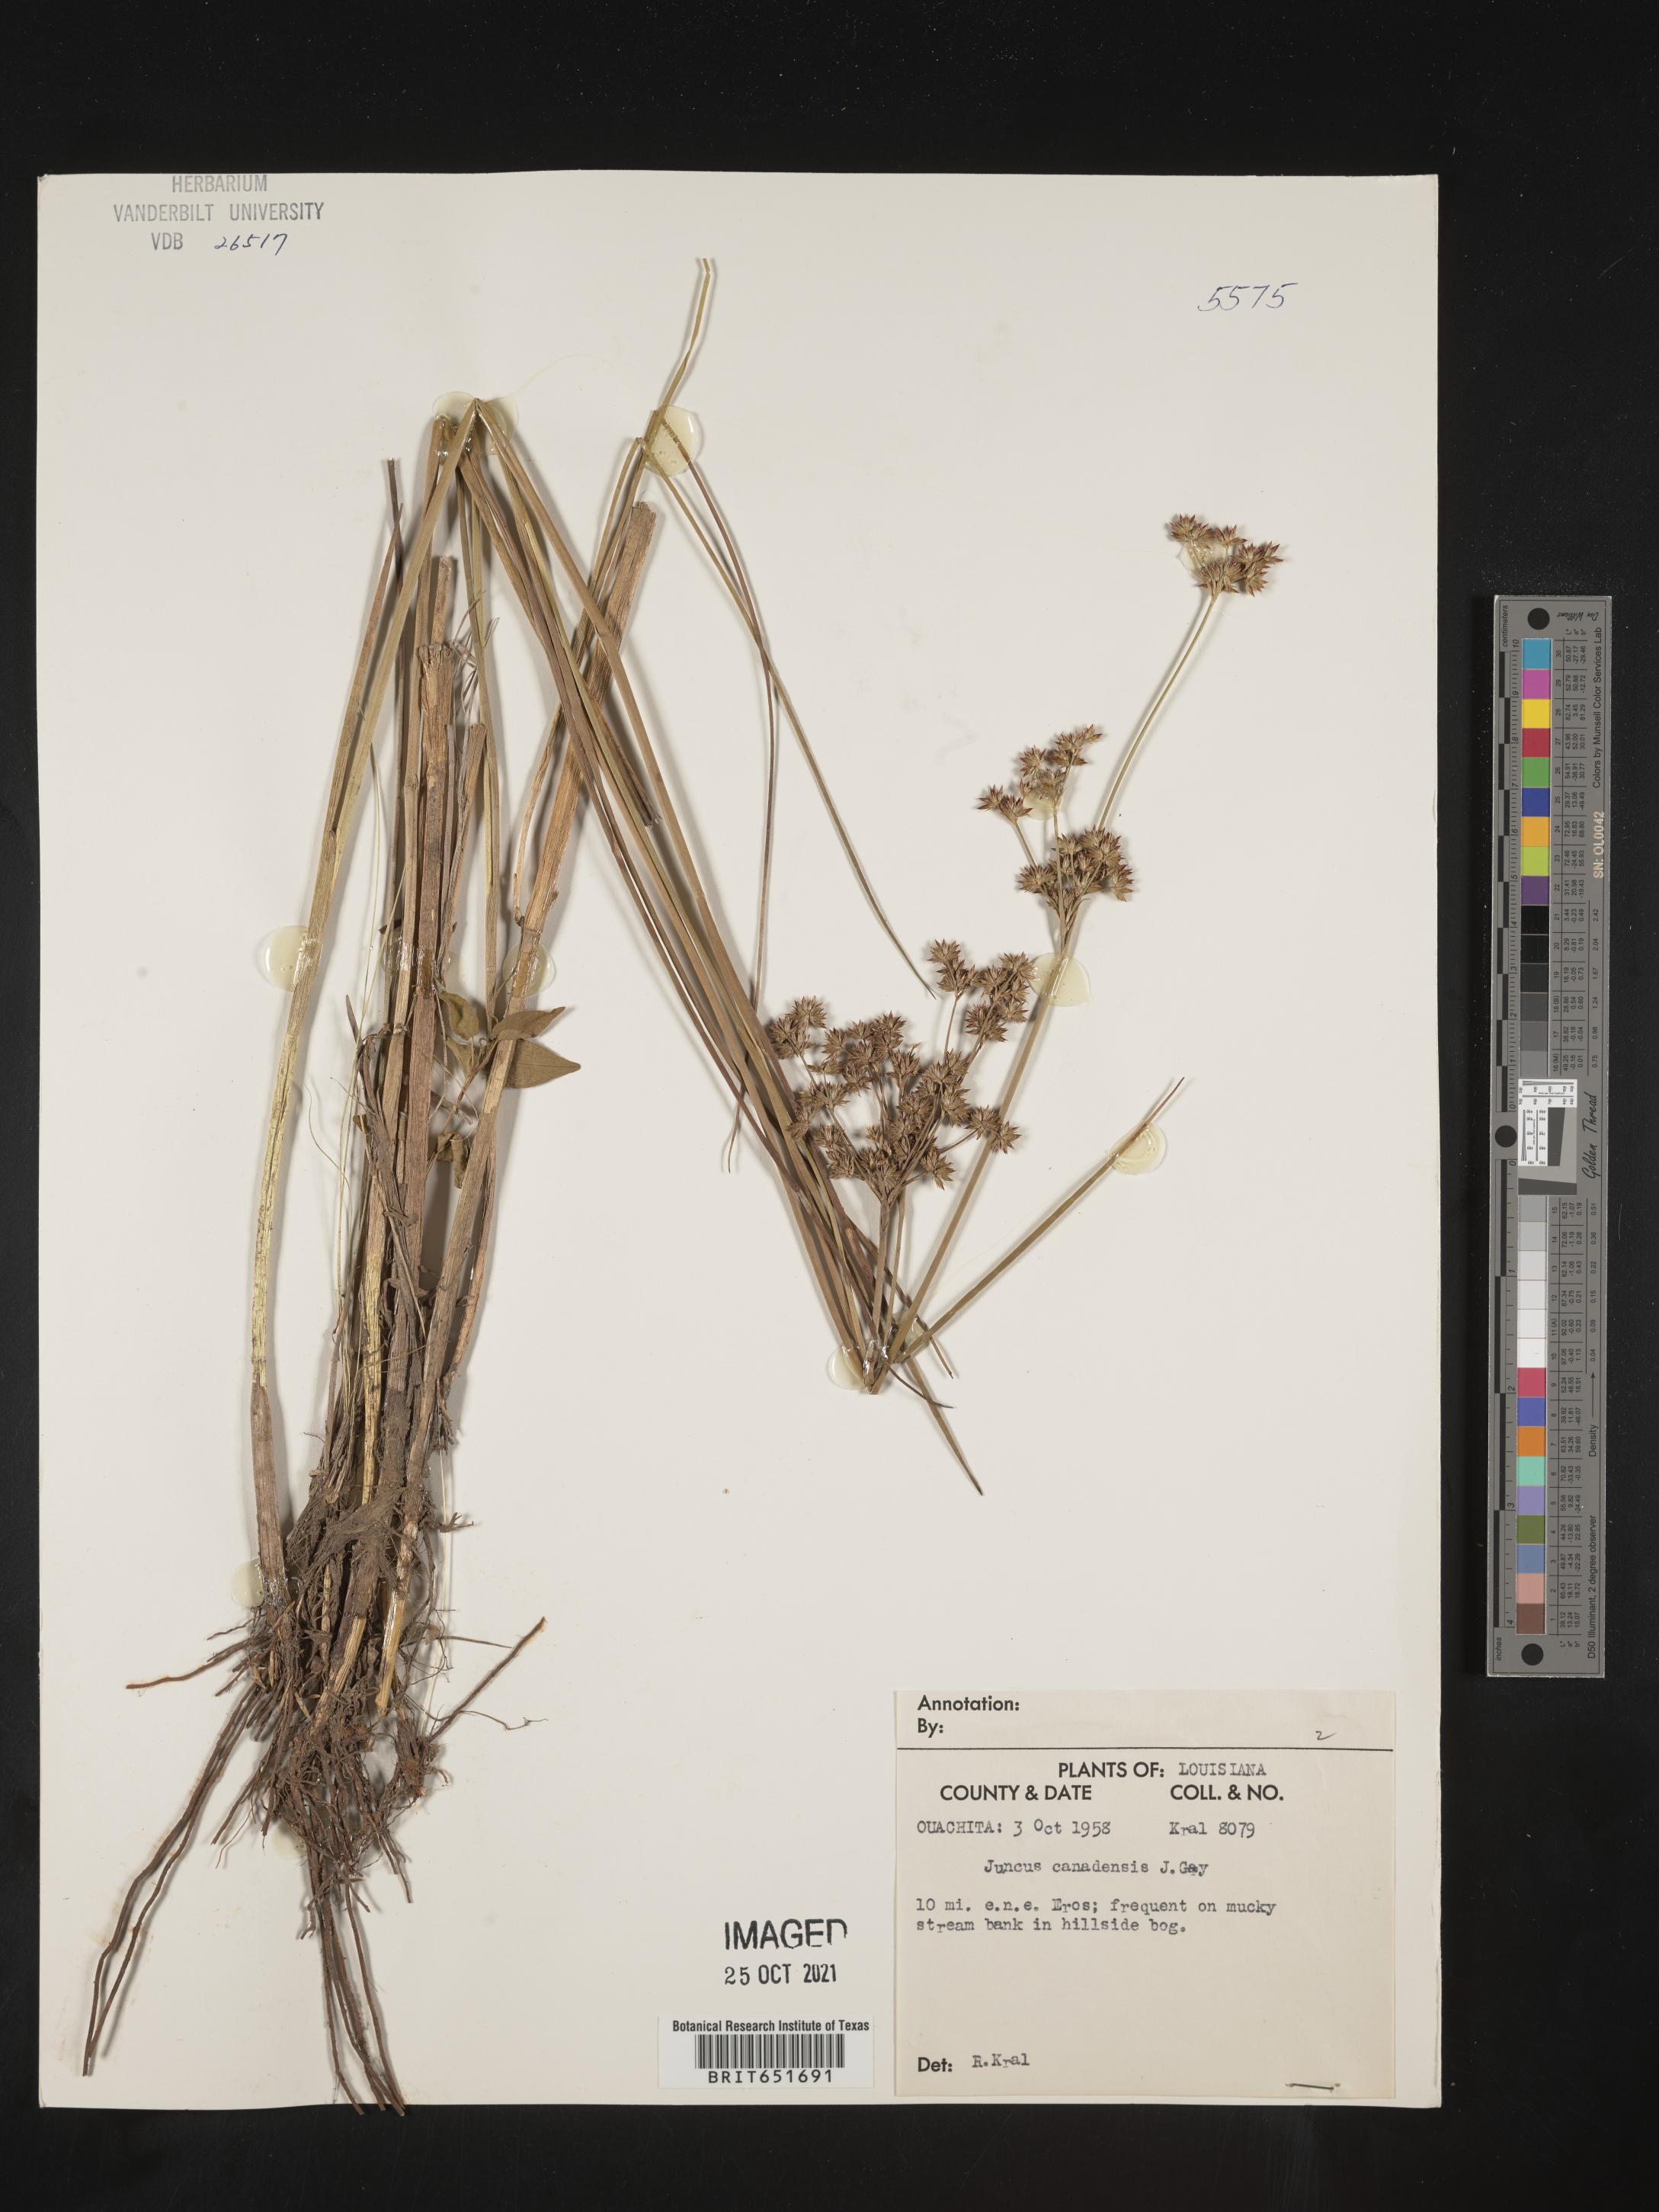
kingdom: Plantae
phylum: Tracheophyta
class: Liliopsida
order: Poales
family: Juncaceae
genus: Juncus
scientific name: Juncus canadensis
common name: Canada rush
